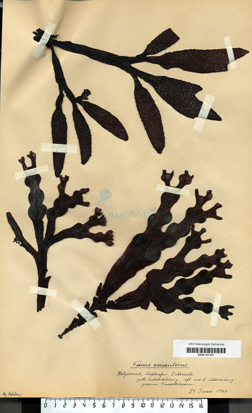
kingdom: Chromista
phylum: Ochrophyta
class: Phaeophyceae
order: Fucales
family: Fucaceae
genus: Fucus
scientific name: Fucus vesiculosus
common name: Bladder wrack
